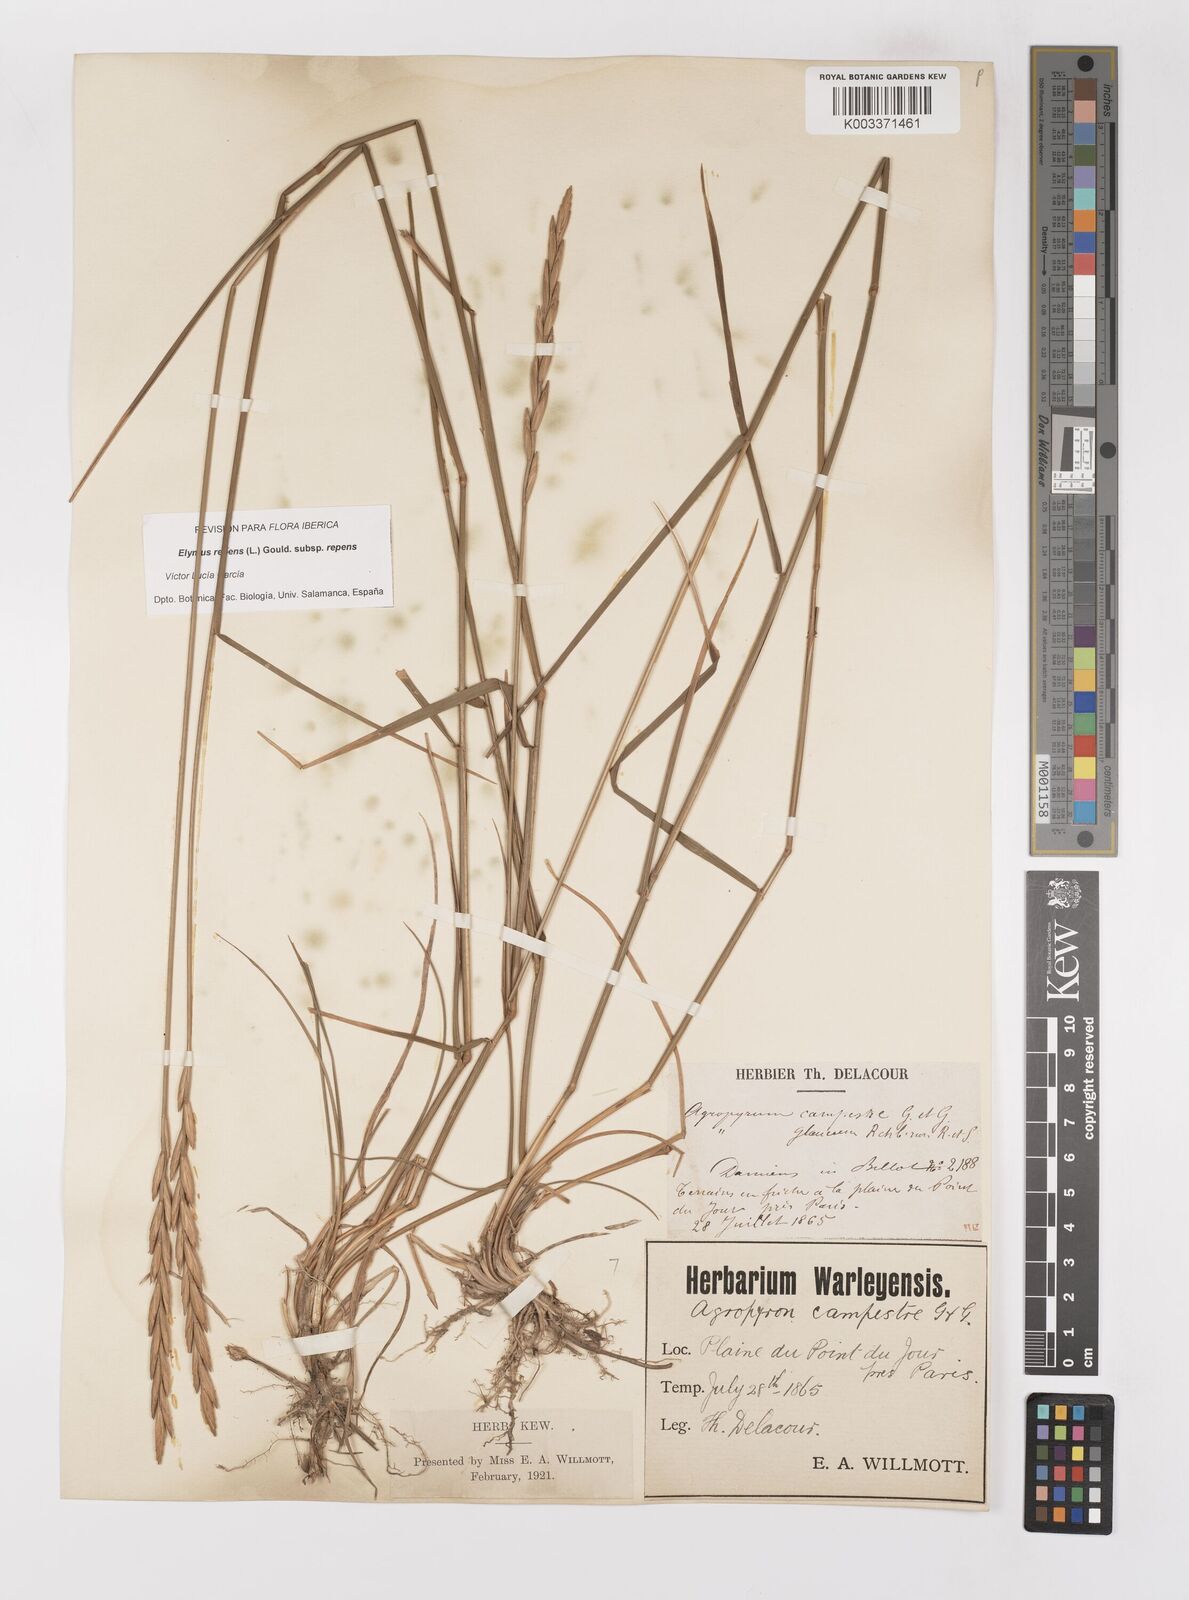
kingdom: Plantae
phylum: Tracheophyta
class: Liliopsida
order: Poales
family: Poaceae
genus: Elymus
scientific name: Elymus repens
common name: Quackgrass
